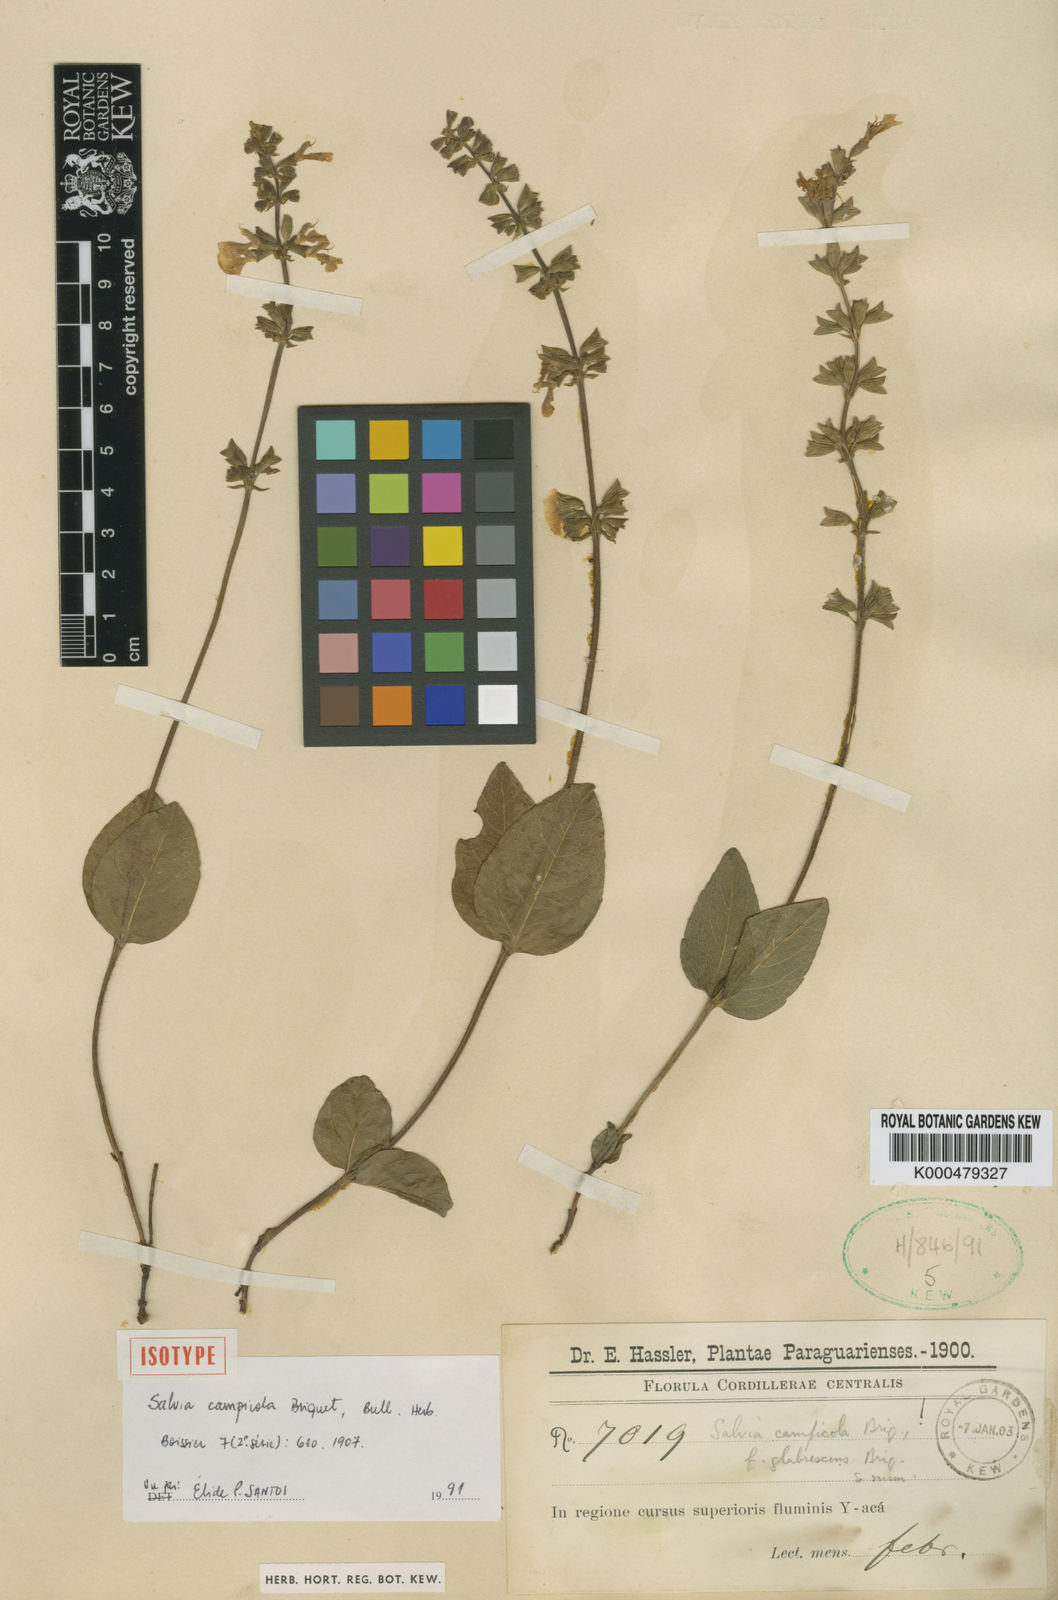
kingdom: Plantae
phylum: Tracheophyta
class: Magnoliopsida
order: Lamiales
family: Lamiaceae
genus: Salvia
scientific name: Salvia ovalifolia
